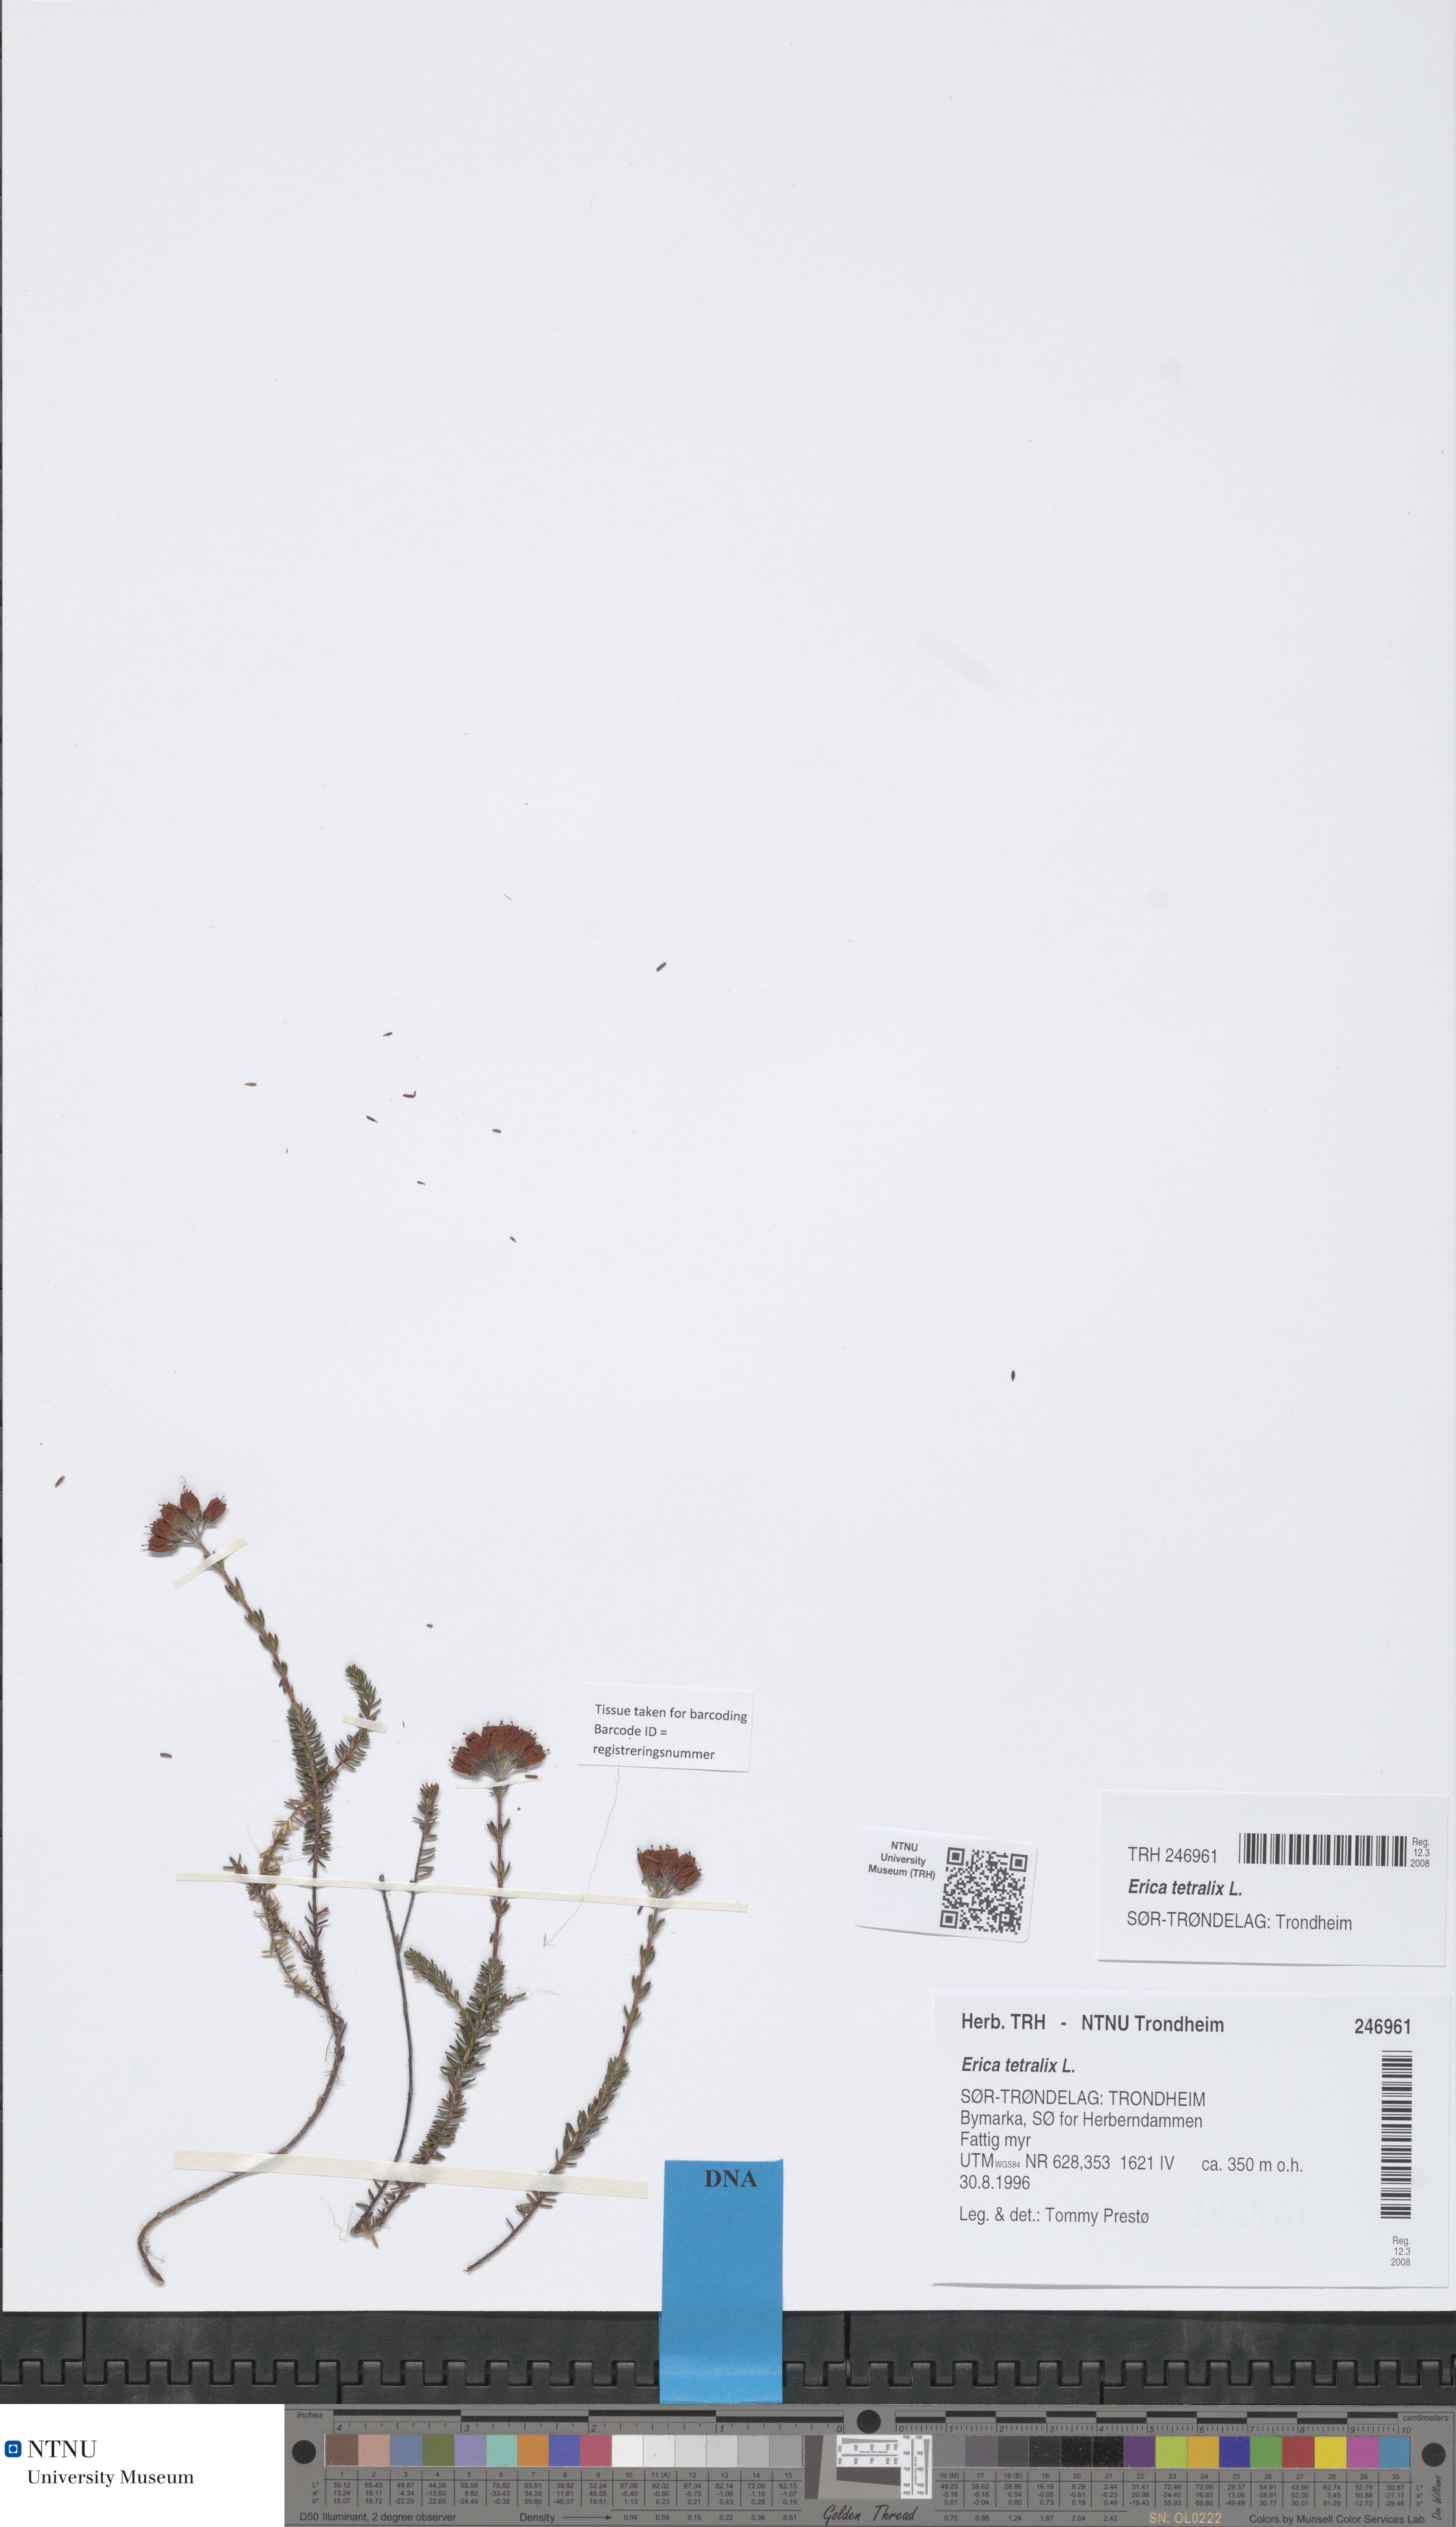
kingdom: Plantae
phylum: Tracheophyta
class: Magnoliopsida
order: Ericales
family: Ericaceae
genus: Erica
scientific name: Erica tetralix
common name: Cross-leaved heath
